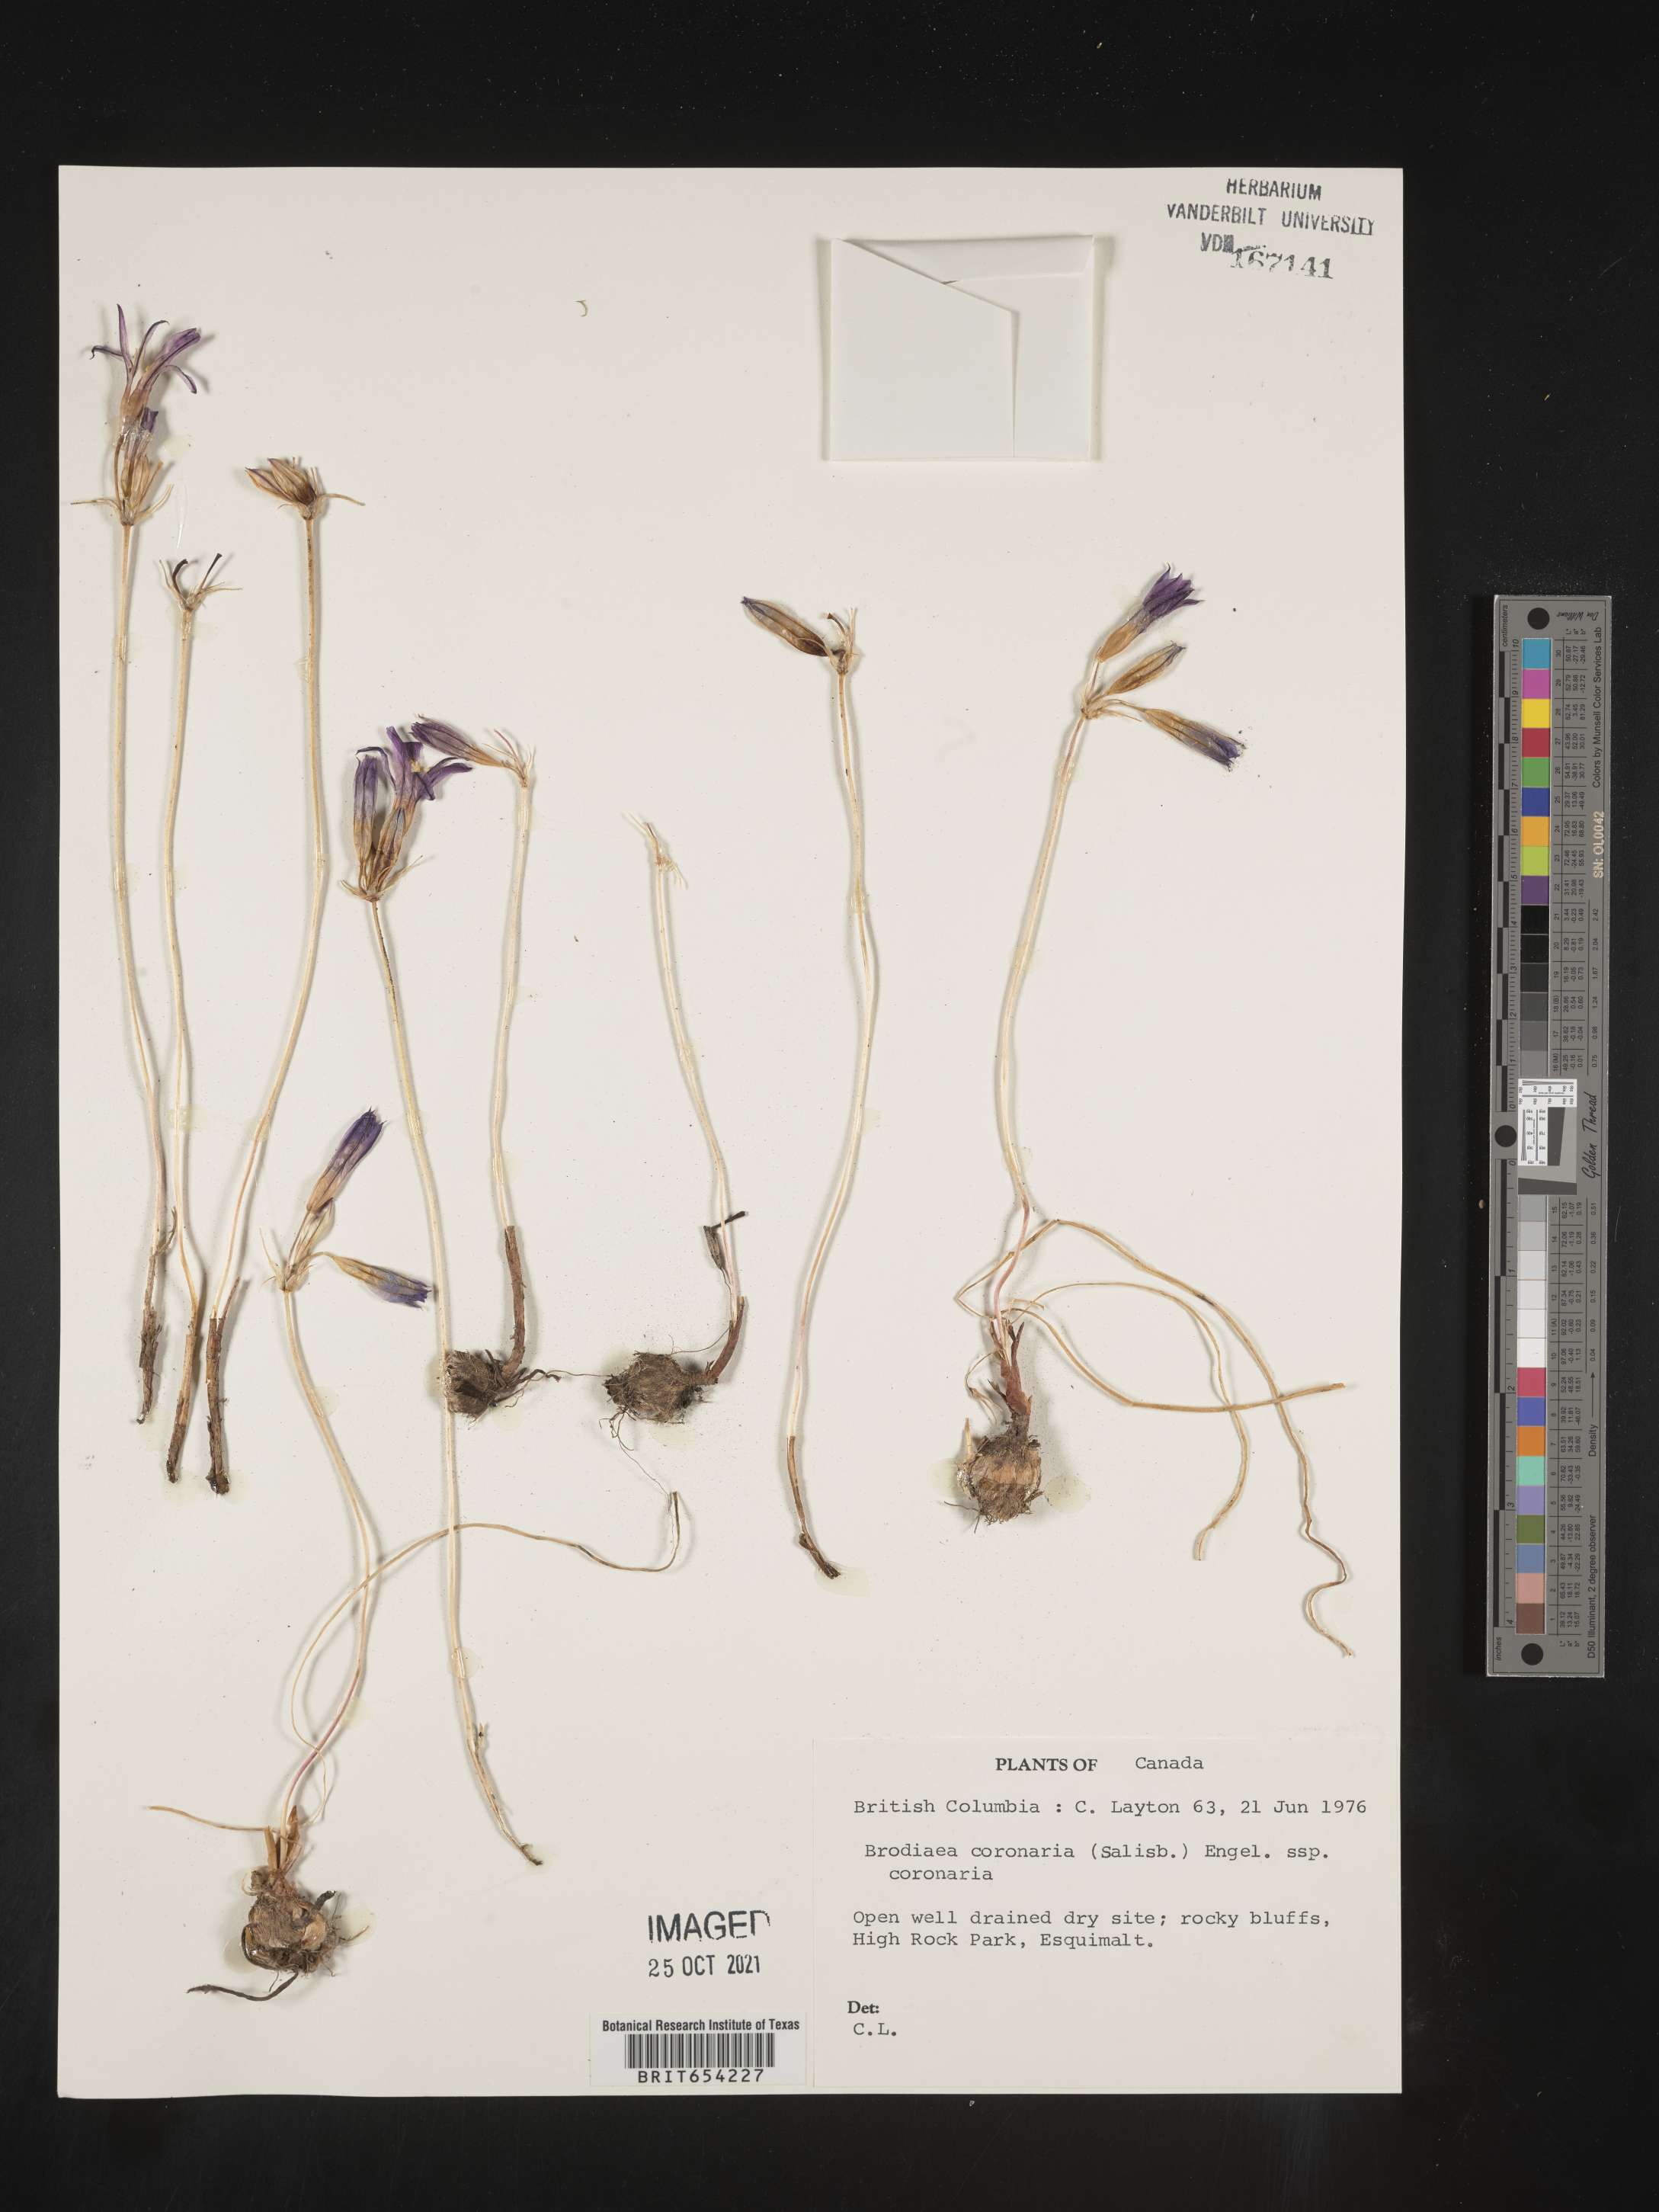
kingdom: Plantae
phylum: Tracheophyta
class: Liliopsida
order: Asparagales
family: Asparagaceae
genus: Brodiaea
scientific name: Brodiaea coronaria
